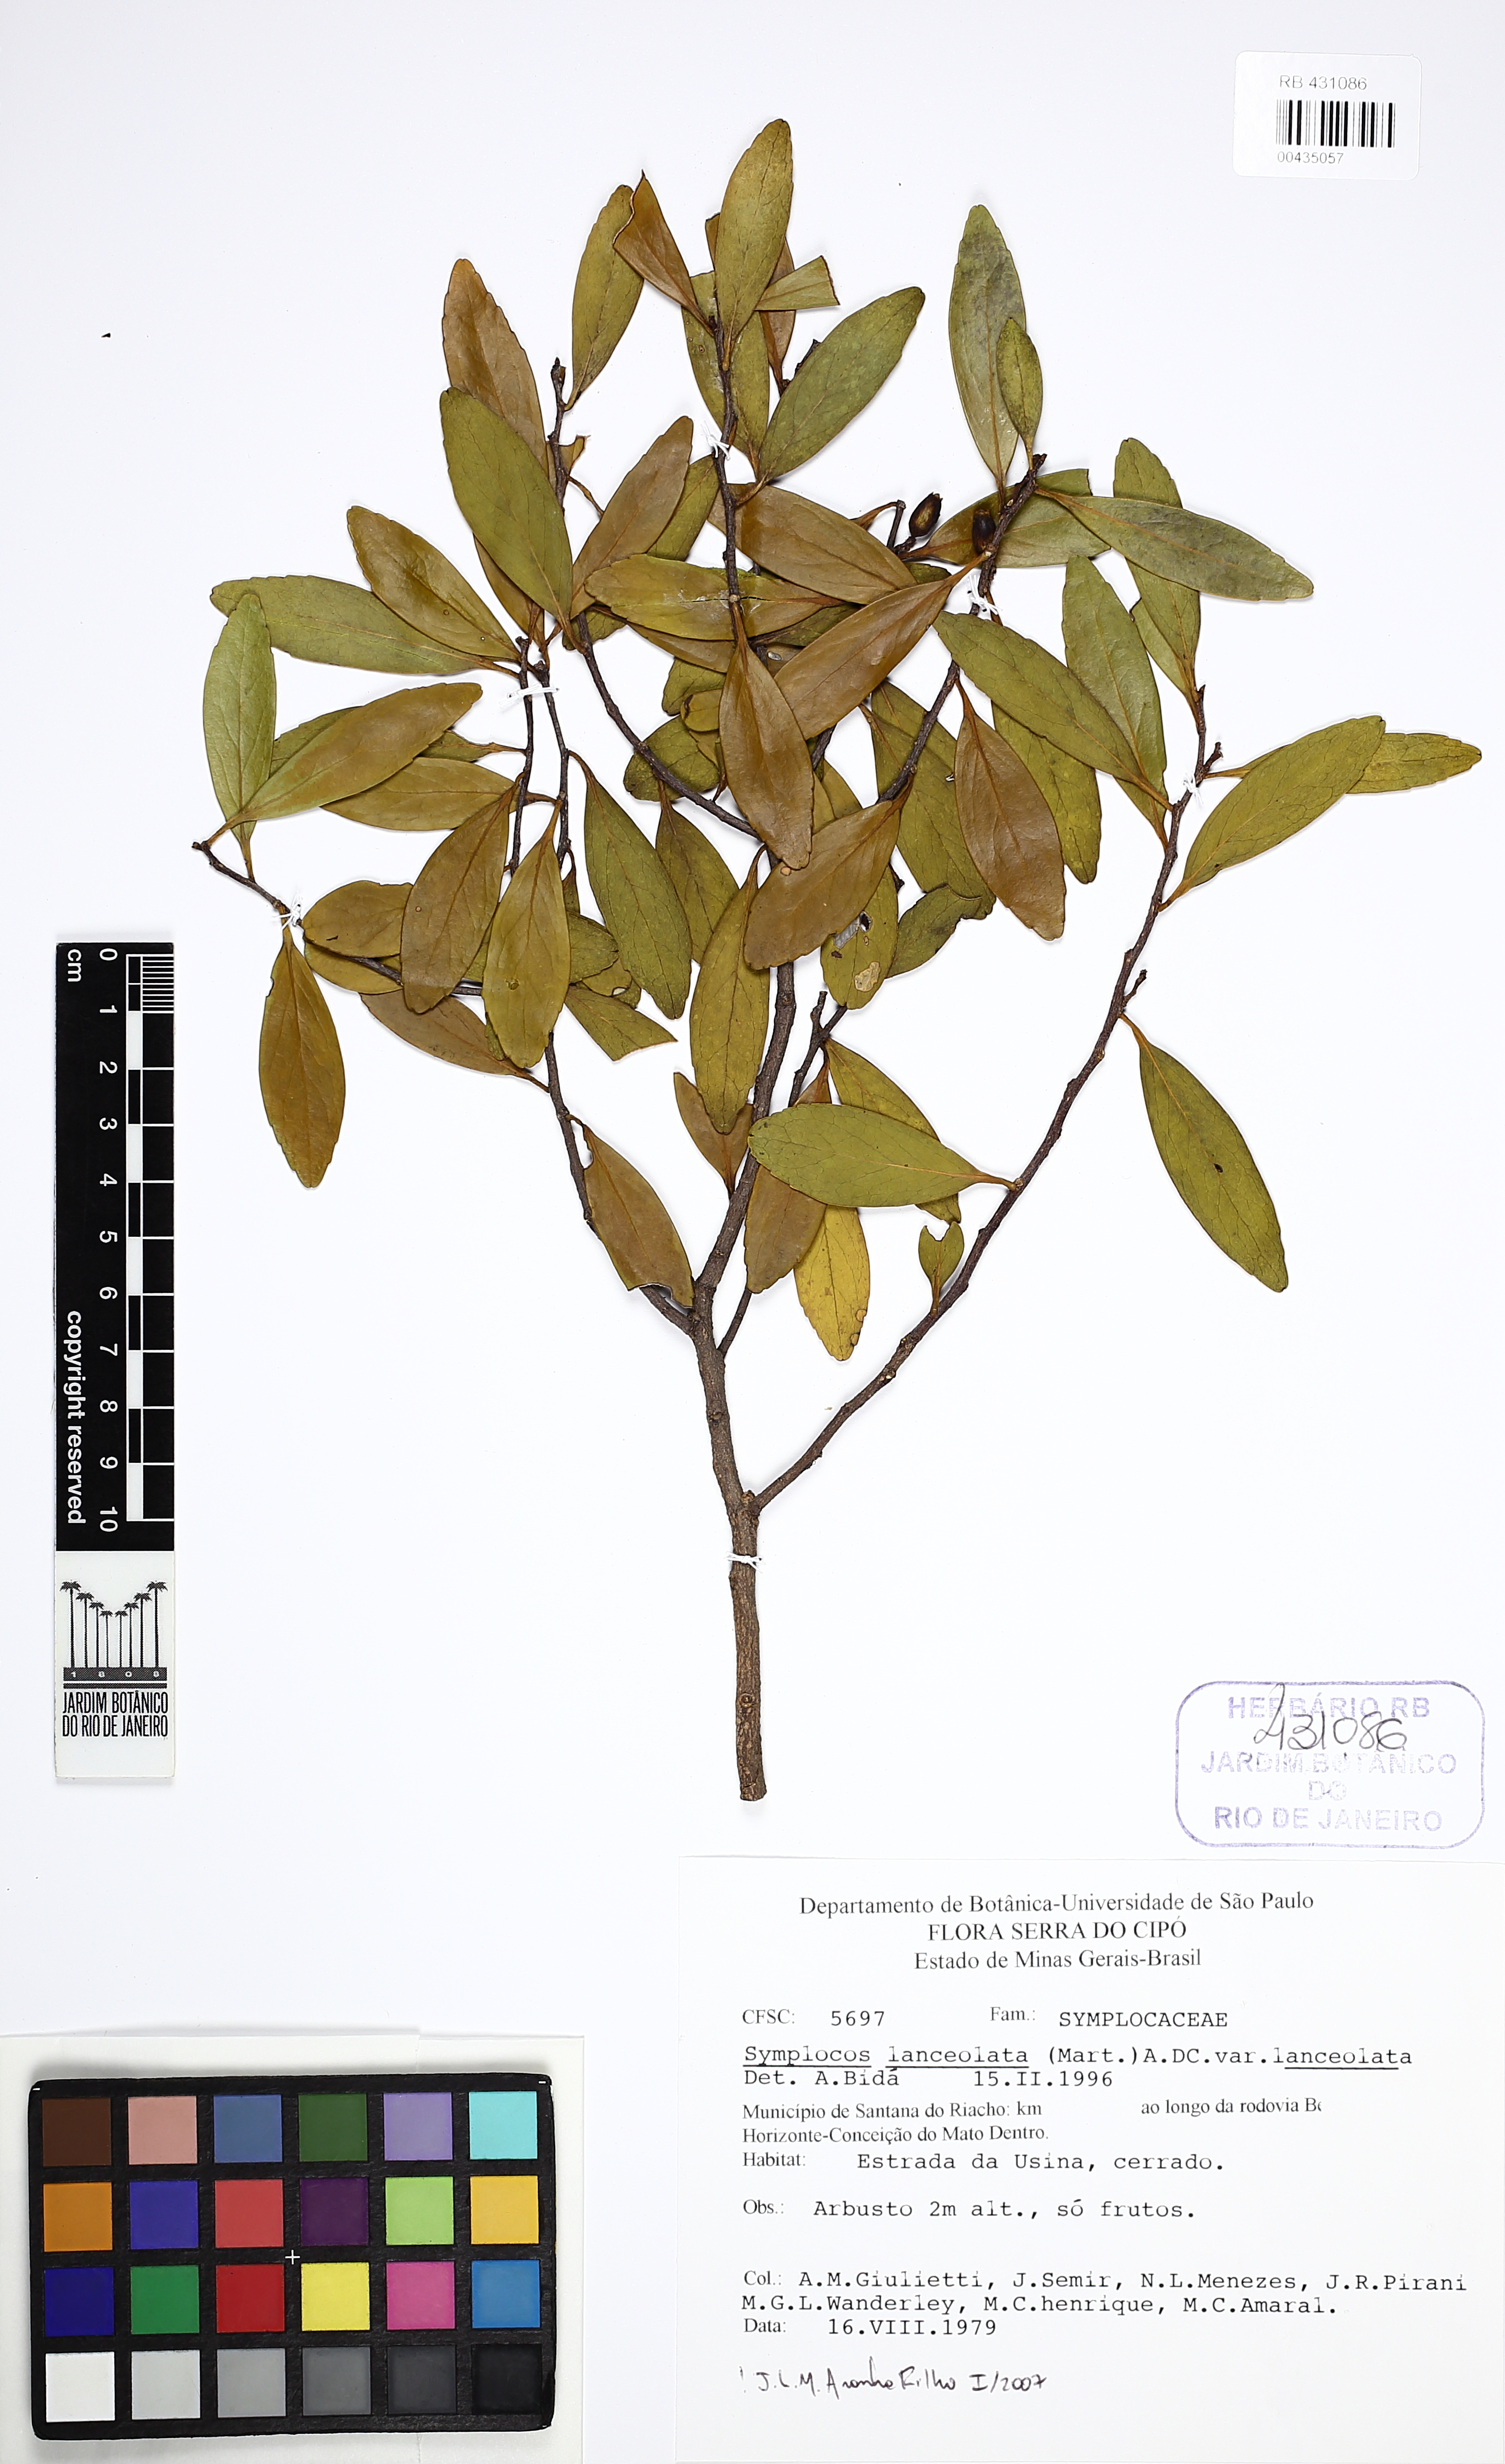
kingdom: Plantae
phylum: Tracheophyta
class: Magnoliopsida
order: Ericales
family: Symplocaceae
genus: Symplocos
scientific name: Symplocos oblongifolia
